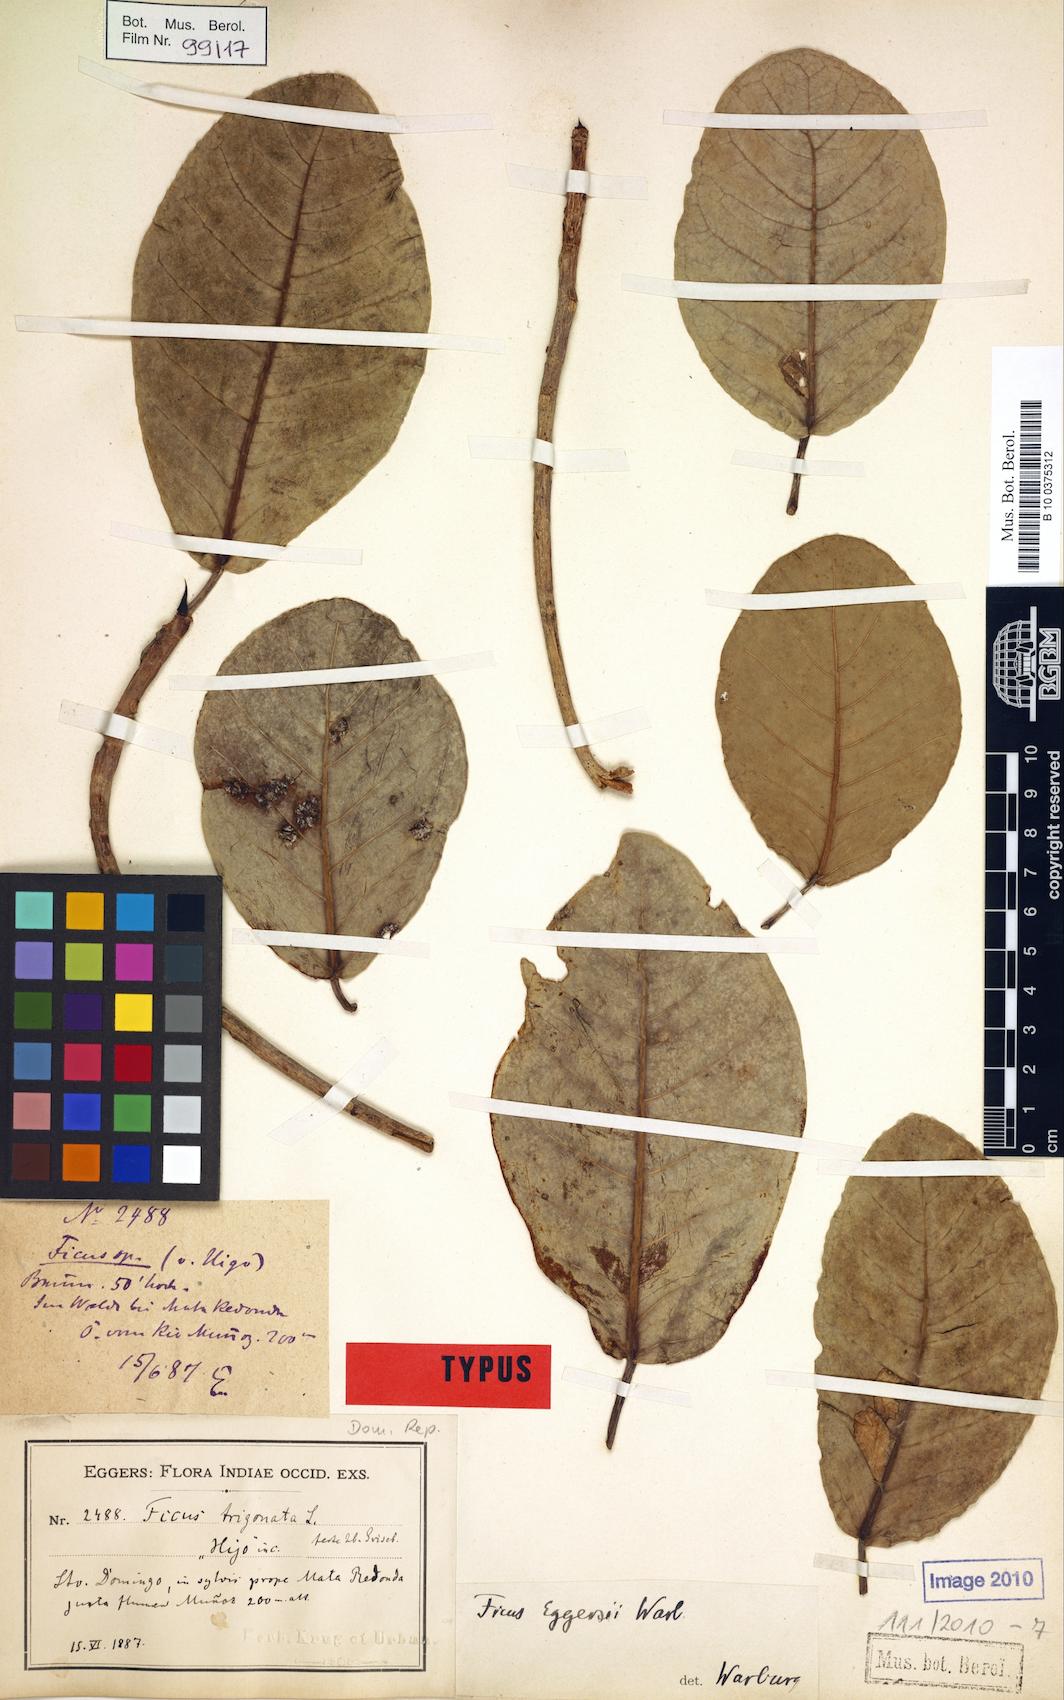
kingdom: Plantae
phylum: Tracheophyta
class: Magnoliopsida
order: Rosales
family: Moraceae
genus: Ficus
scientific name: Ficus crassinervia
